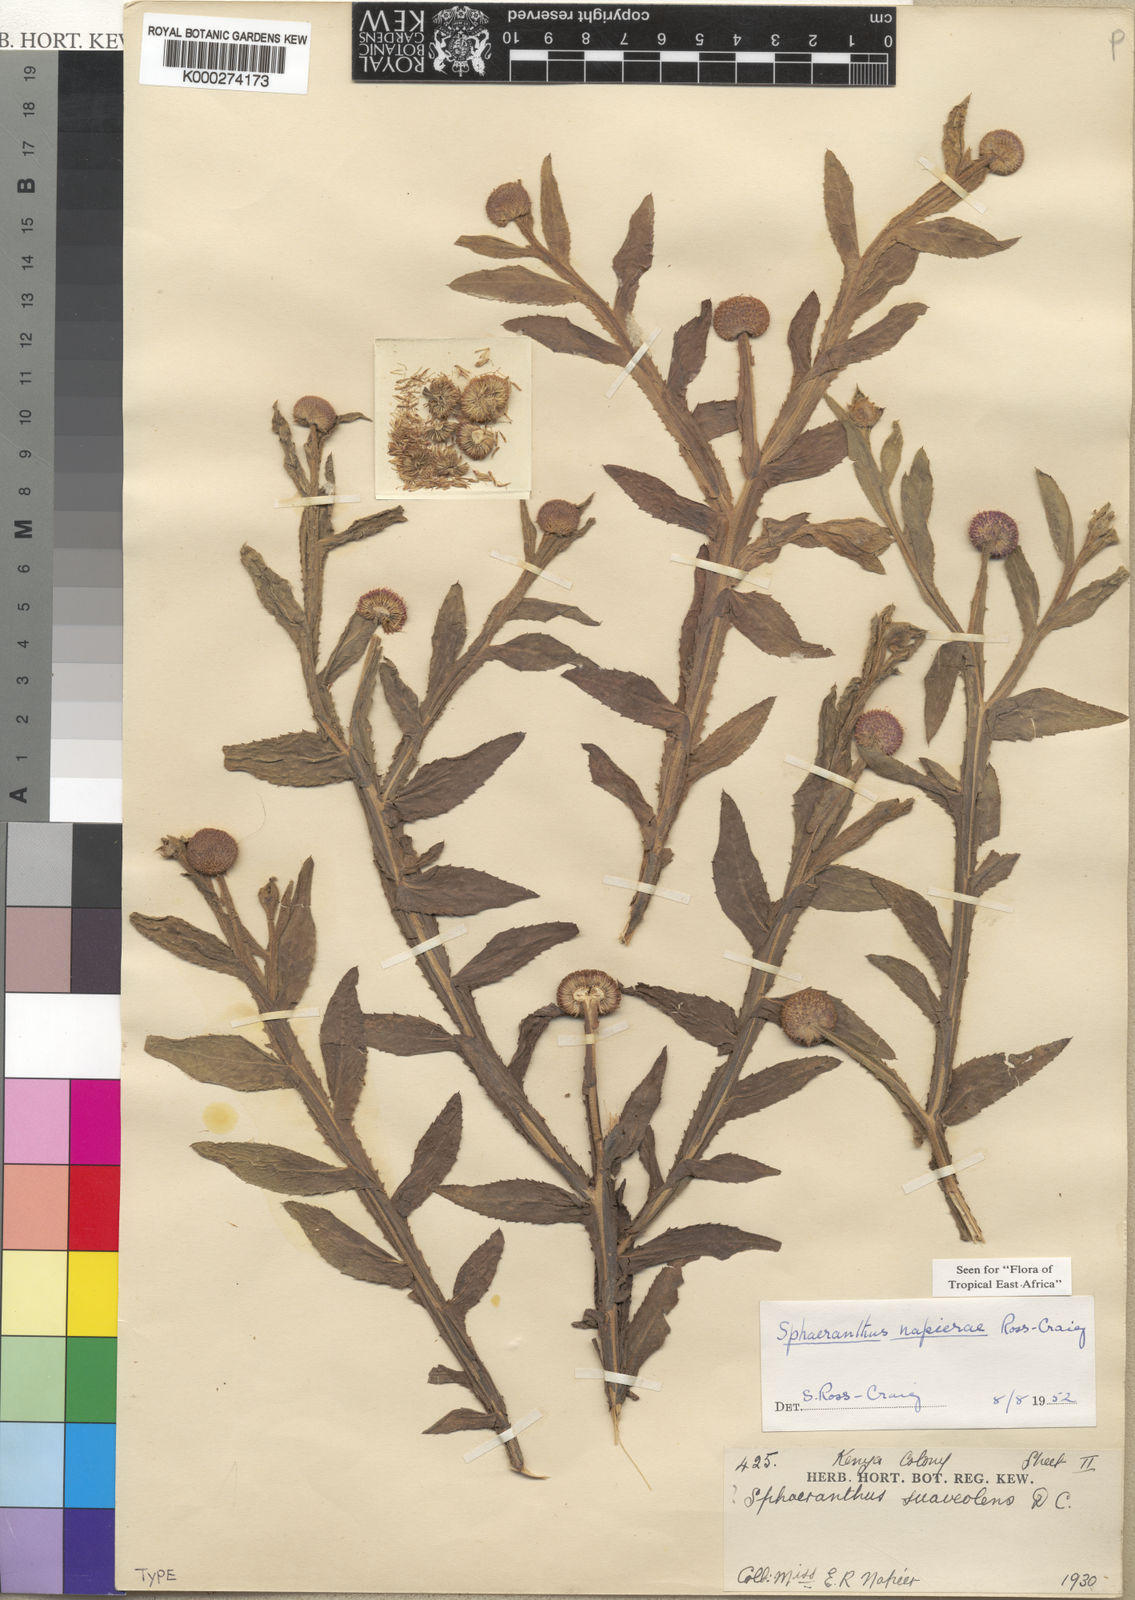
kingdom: Plantae
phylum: Tracheophyta
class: Magnoliopsida
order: Asterales
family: Asteraceae
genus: Sphaeranthus
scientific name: Sphaeranthus suaveolens
